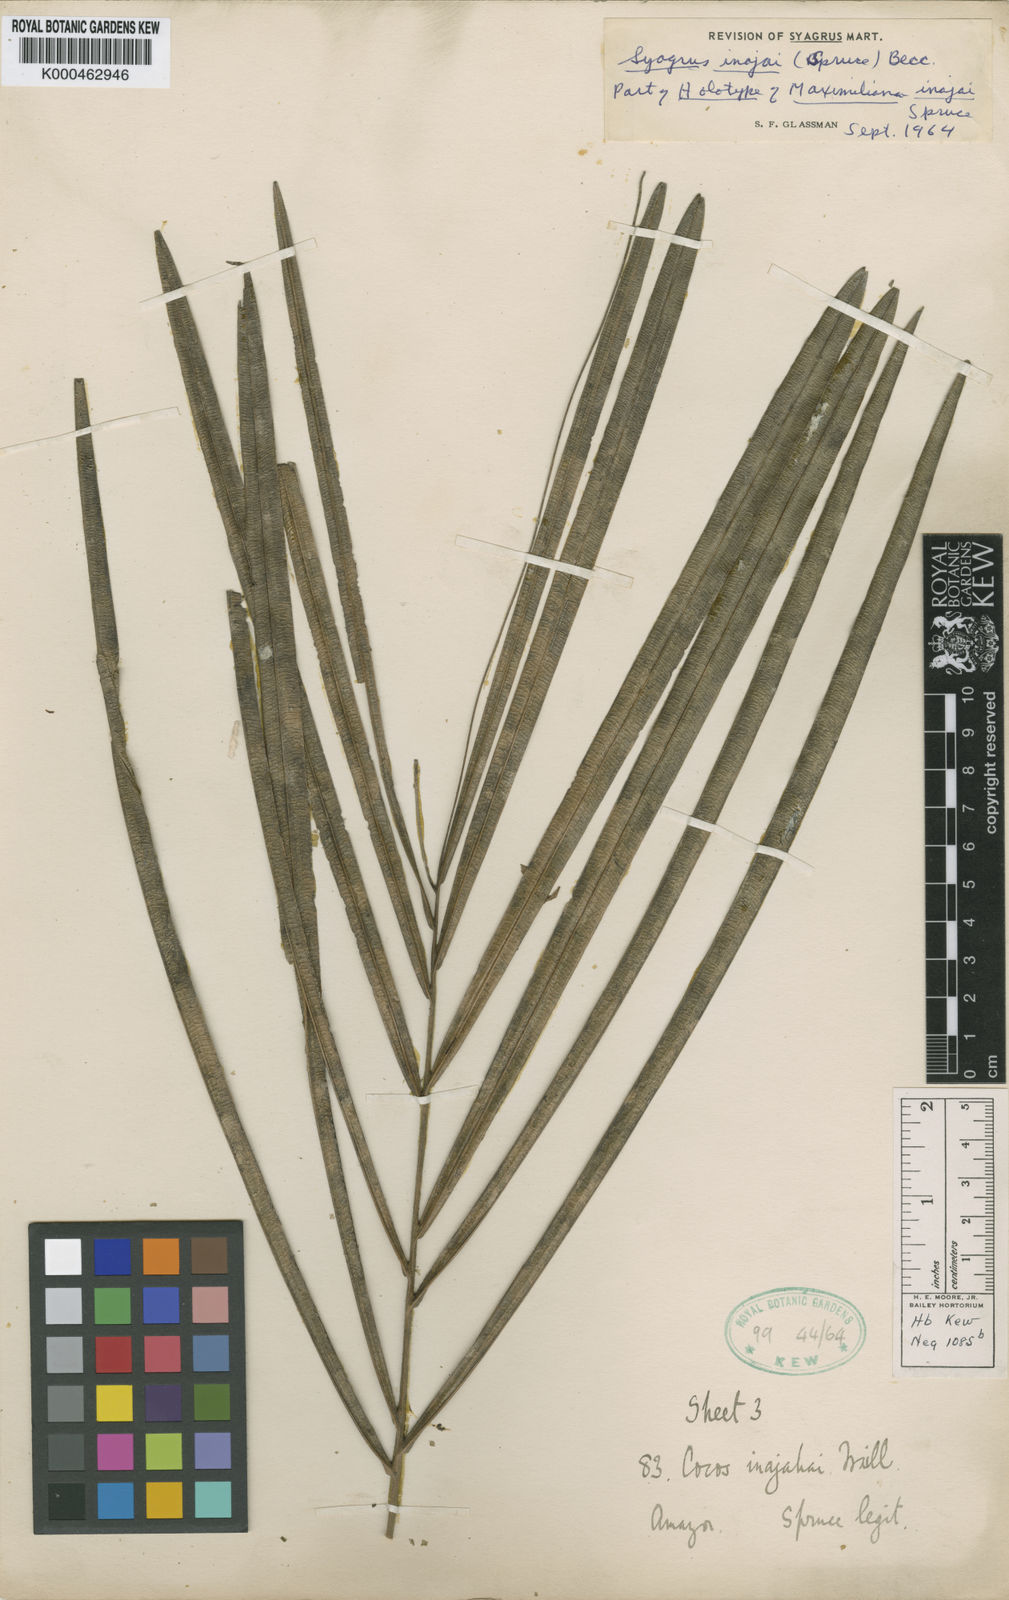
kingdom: Plantae
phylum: Tracheophyta
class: Liliopsida
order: Arecales
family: Arecaceae
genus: Syagrus
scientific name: Syagrus inajai
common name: Pupunha palm
